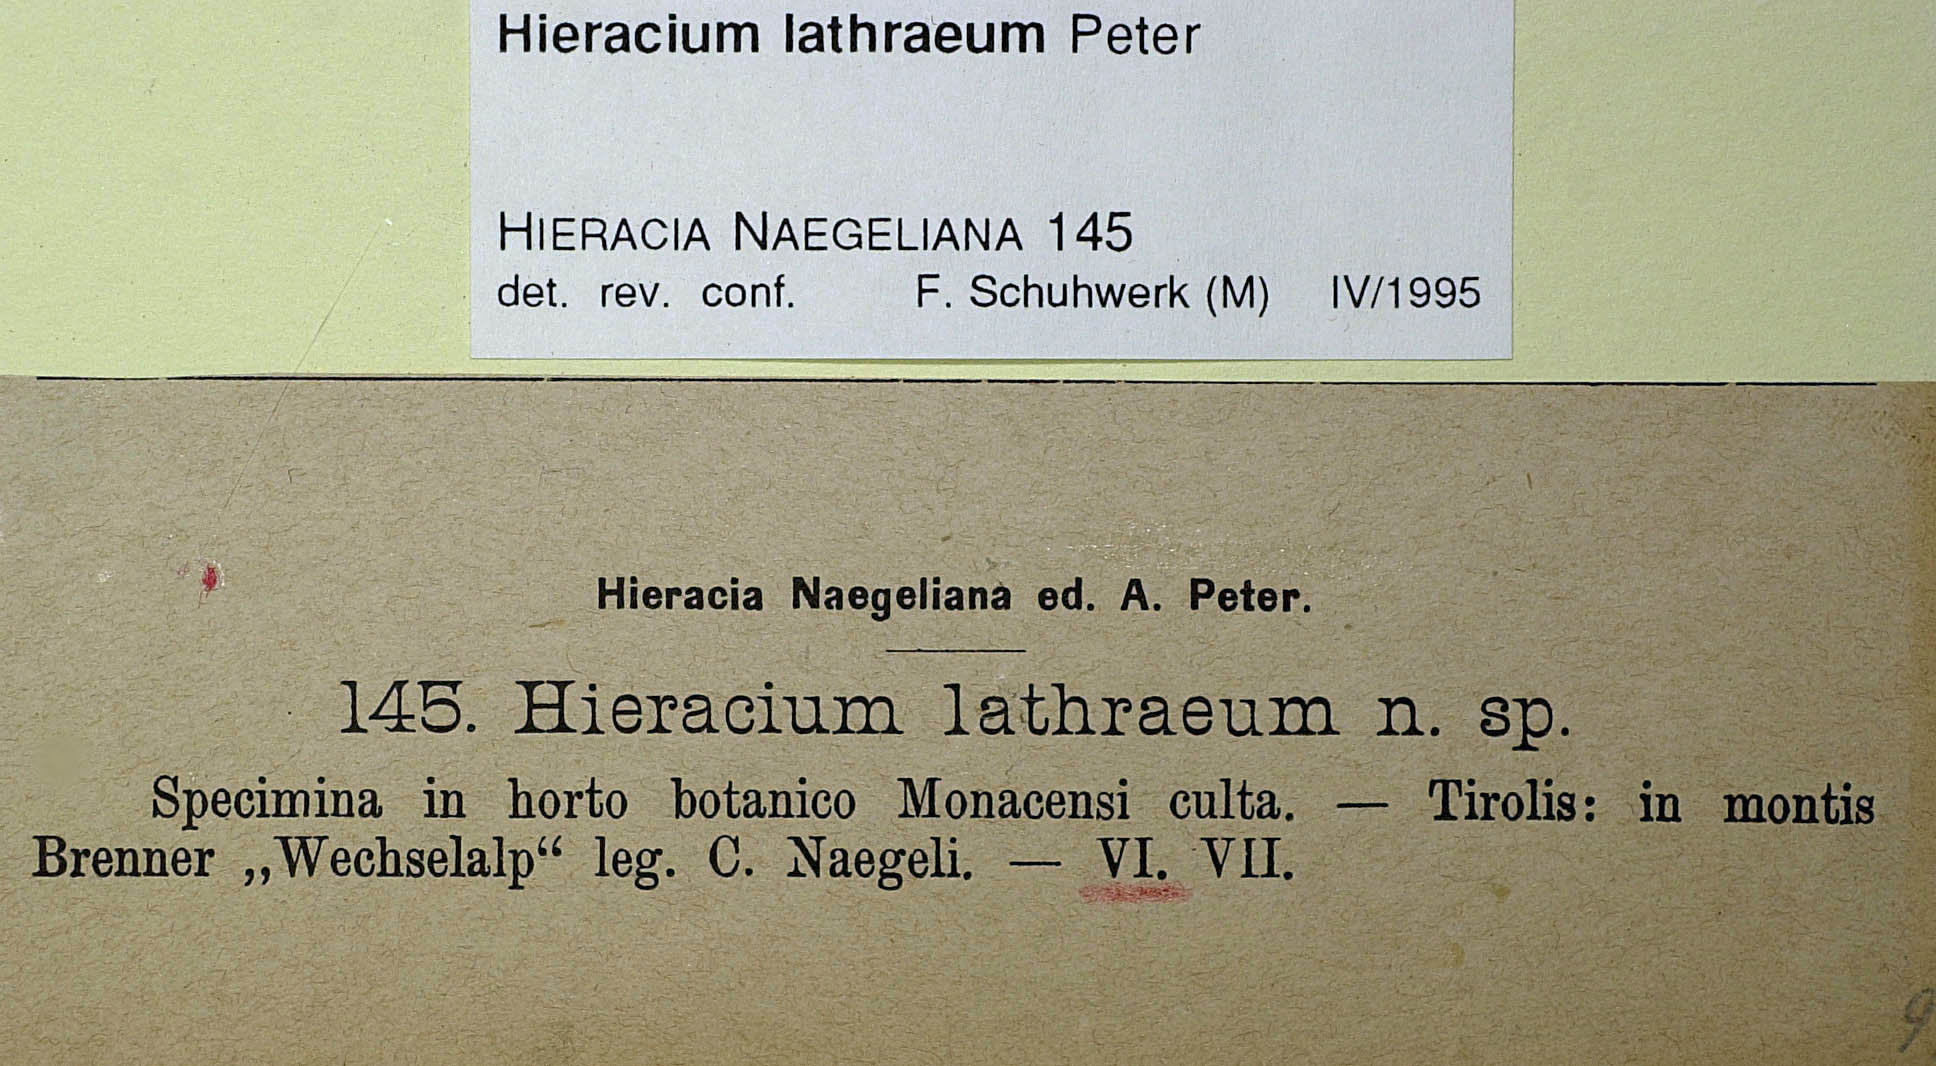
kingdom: Plantae
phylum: Tracheophyta
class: Magnoliopsida
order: Asterales
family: Asteraceae
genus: Pilosella
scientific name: Pilosella lathraea
